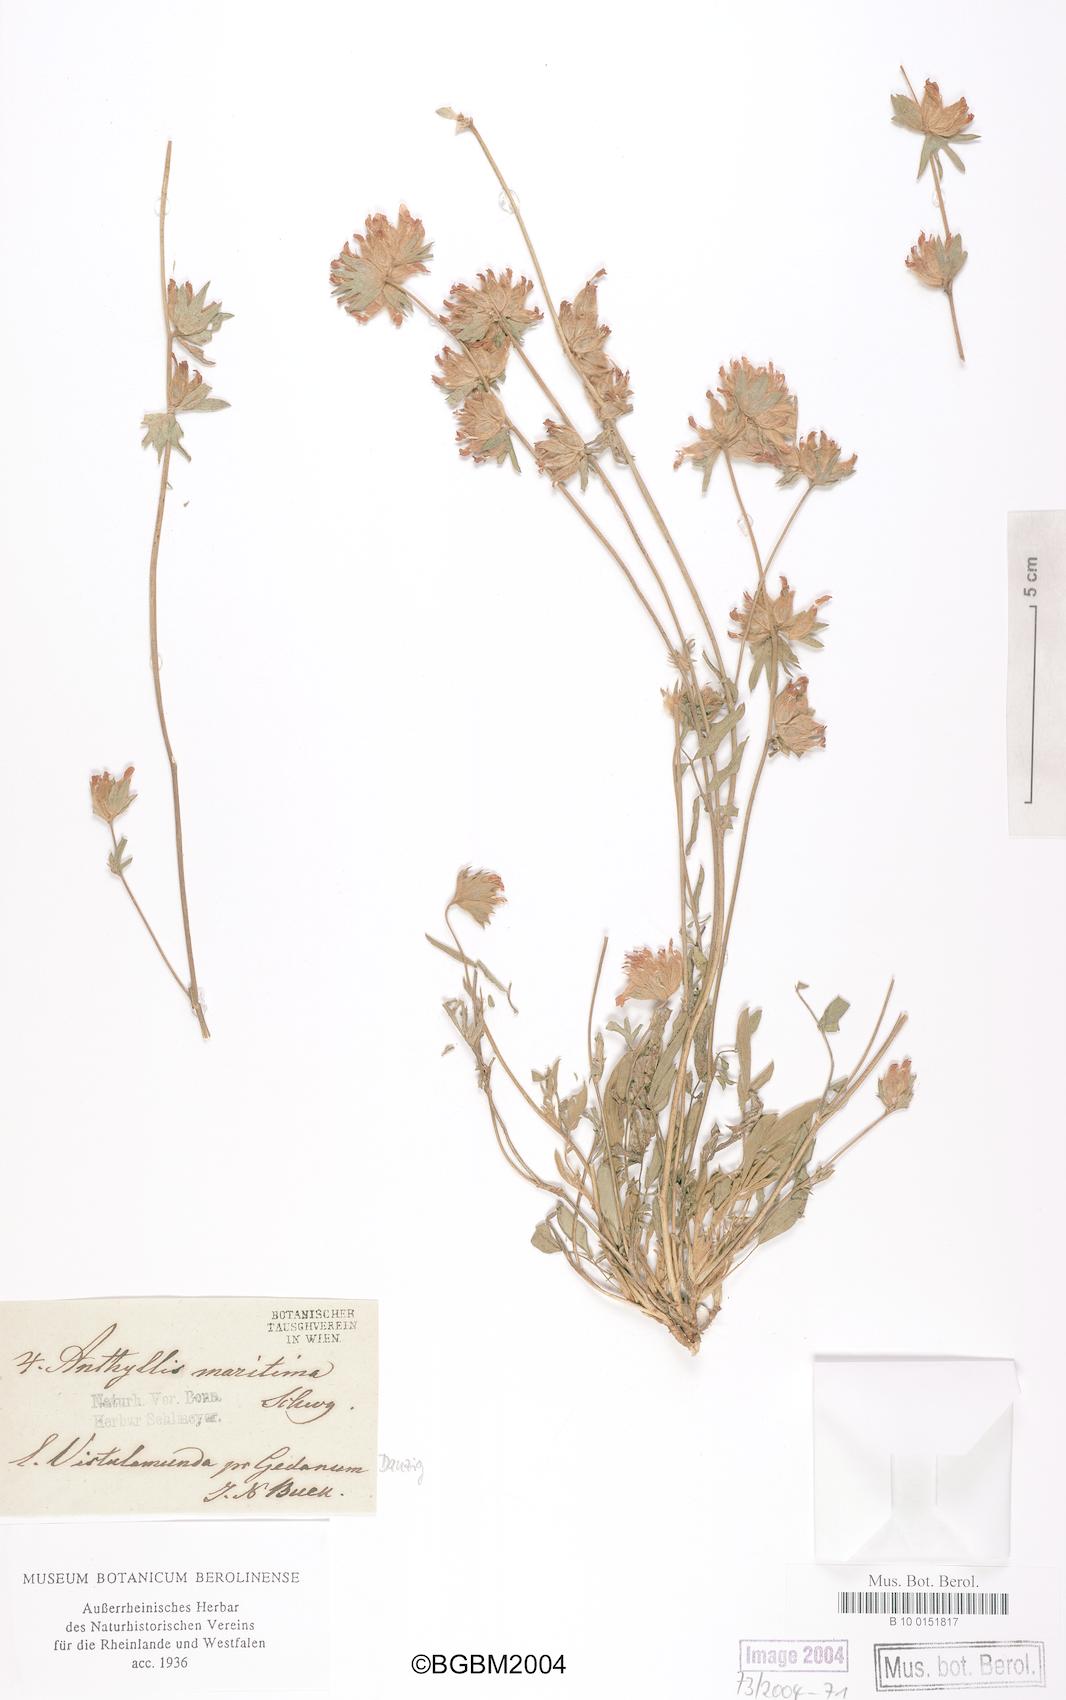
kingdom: Plantae
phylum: Tracheophyta
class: Magnoliopsida
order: Fabales
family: Fabaceae
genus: Anthyllis
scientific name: Anthyllis vulneraria
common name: Kidney vetch
